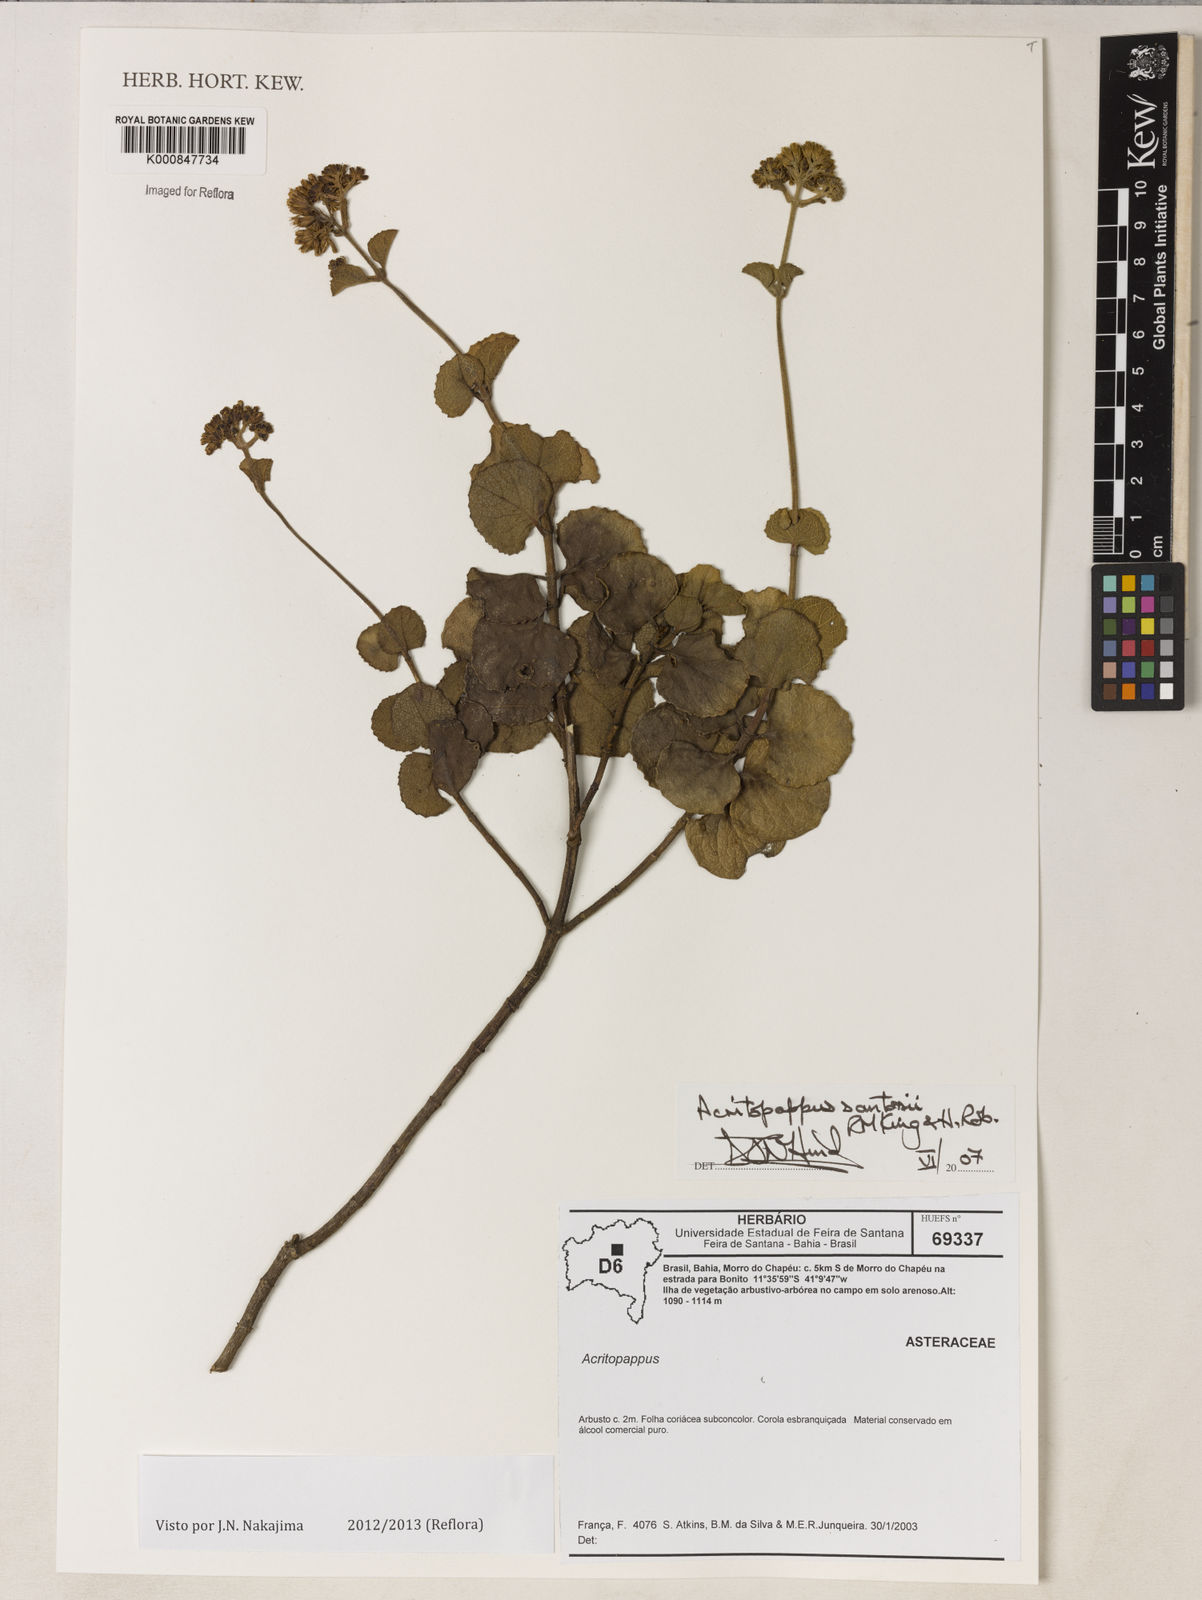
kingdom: Plantae
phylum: Tracheophyta
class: Magnoliopsida
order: Asterales
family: Asteraceae
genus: Acritopappus
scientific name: Acritopappus santosii
